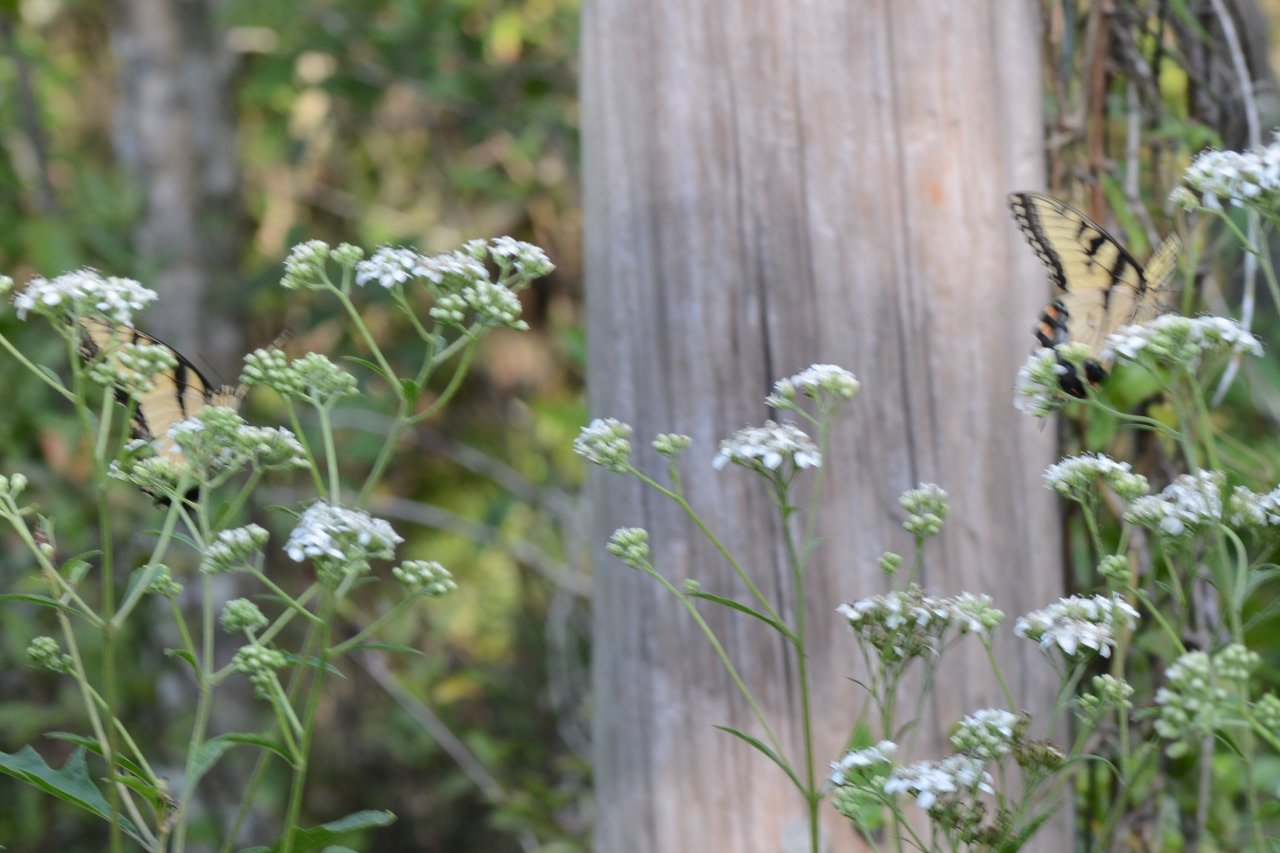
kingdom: Animalia
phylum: Arthropoda
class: Insecta
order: Lepidoptera
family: Papilionidae
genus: Pterourus
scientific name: Pterourus glaucus
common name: Eastern Tiger Swallowtail
